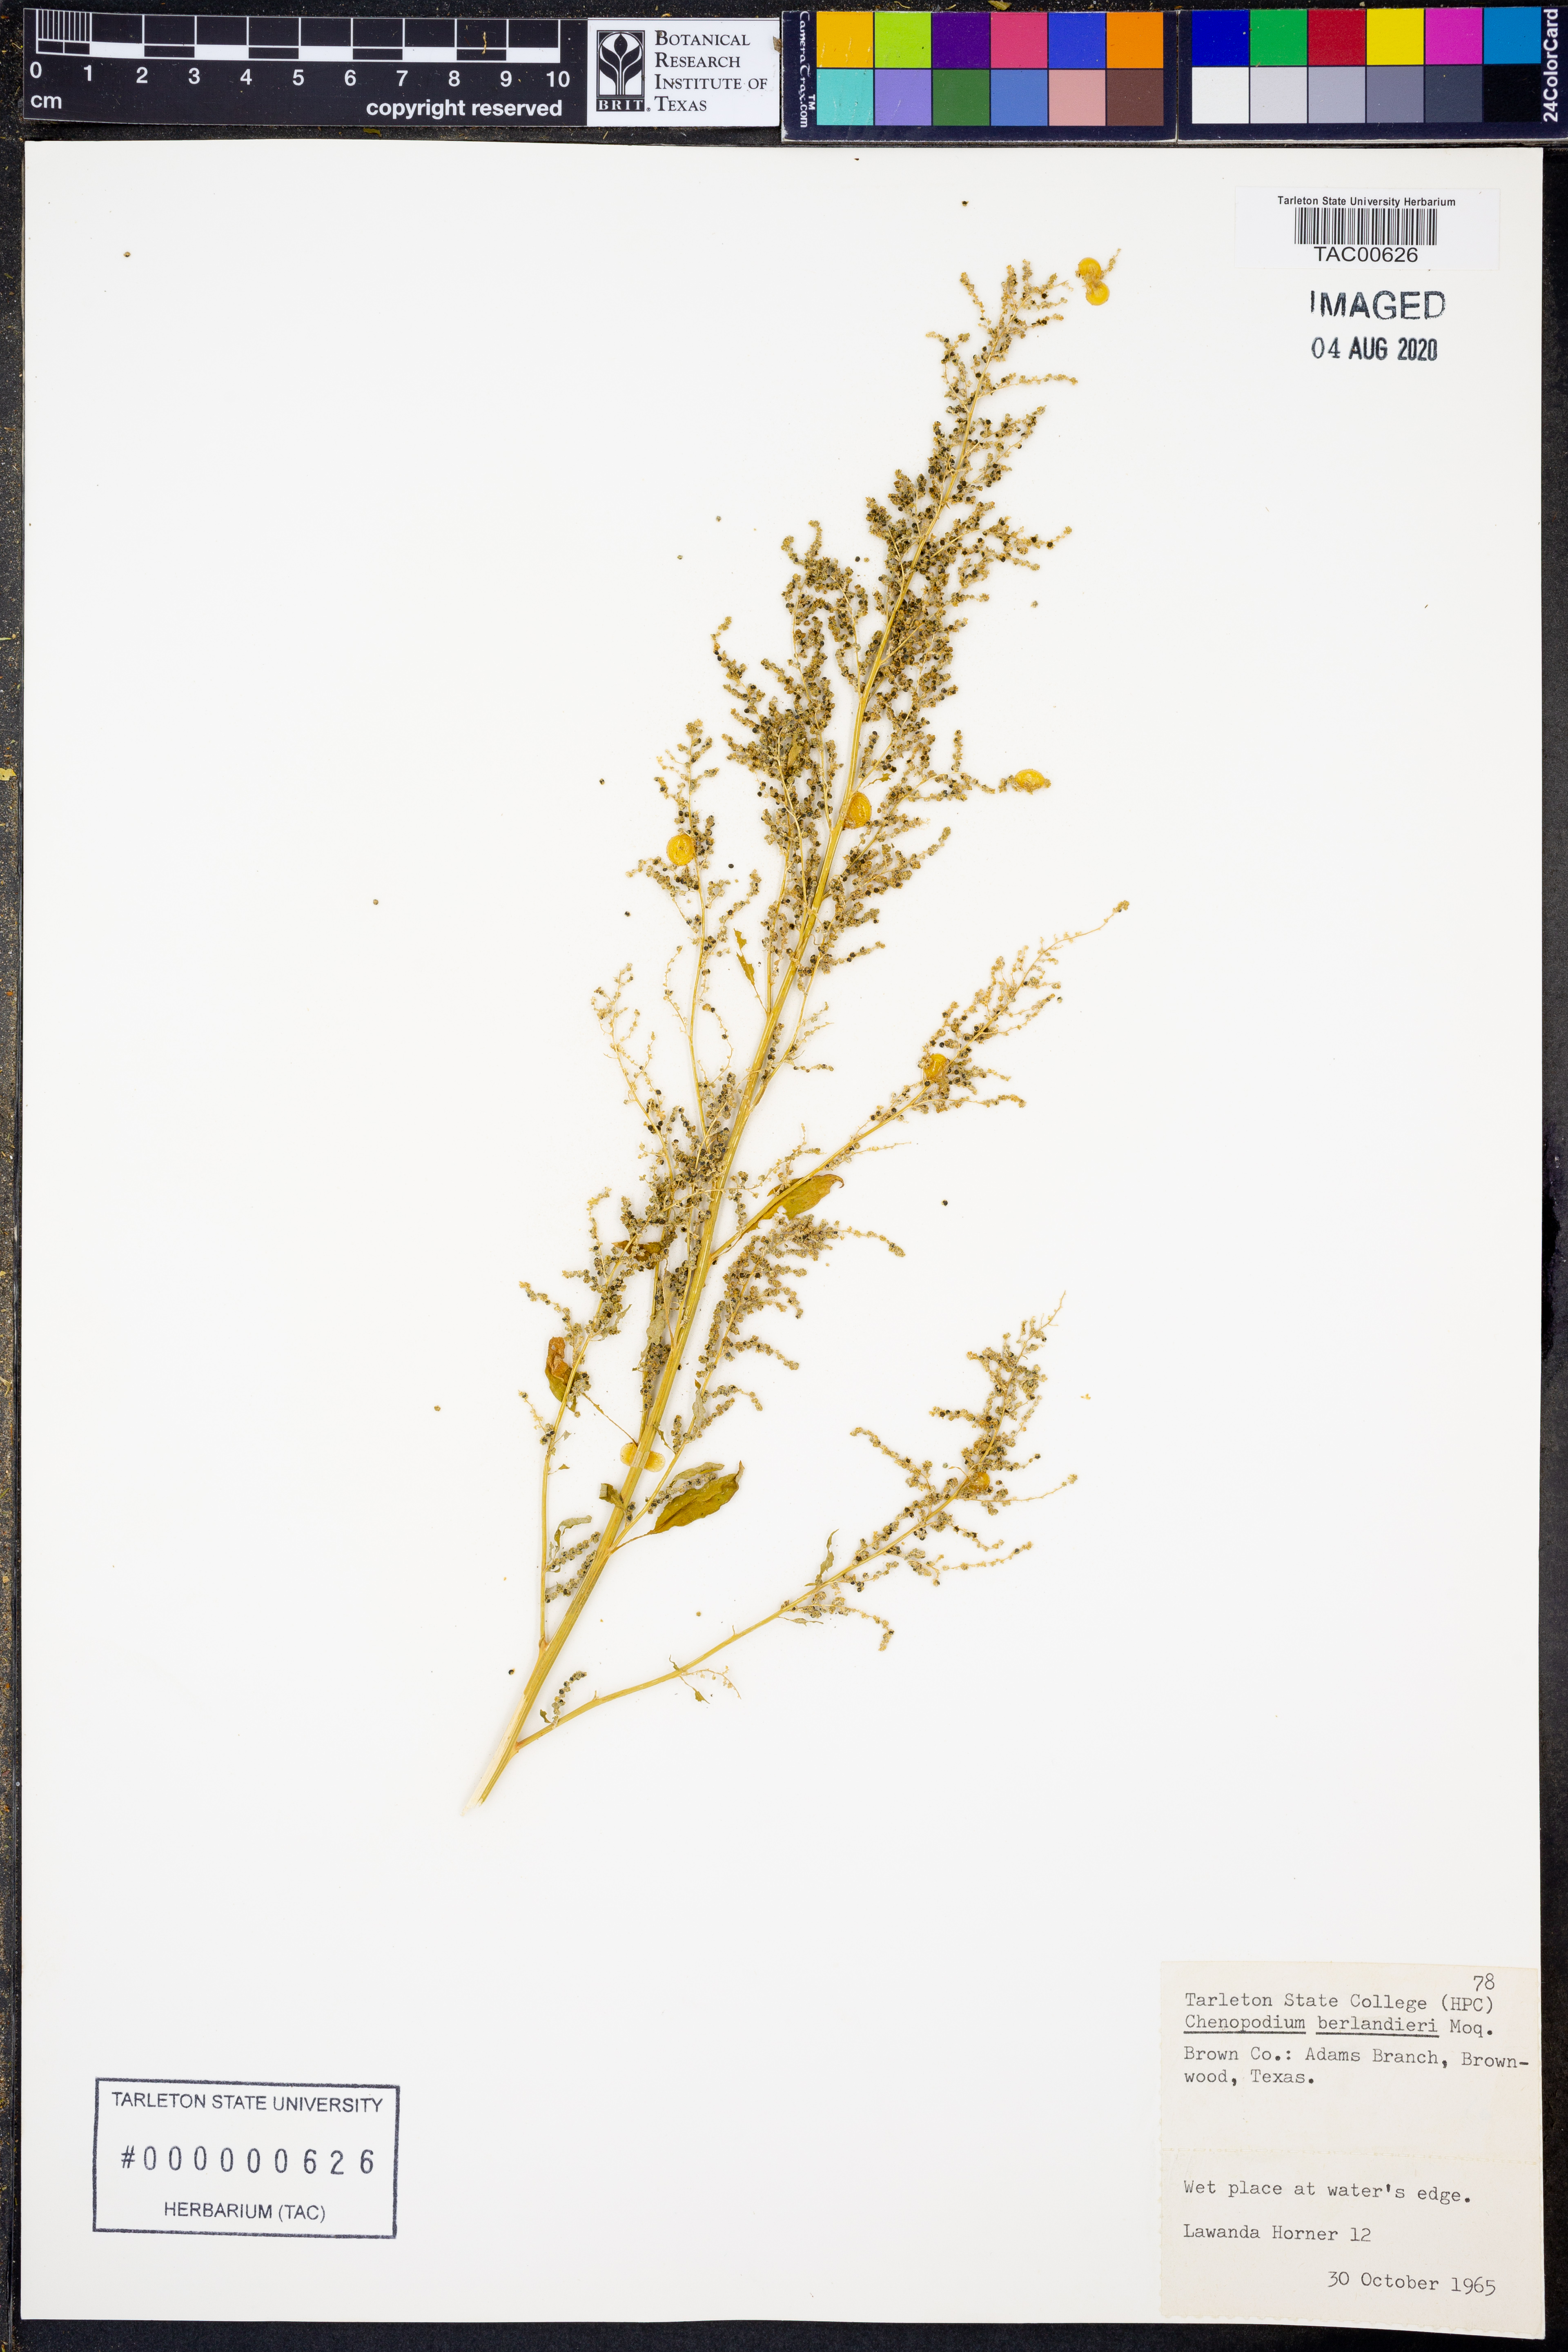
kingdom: Plantae
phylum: Tracheophyta
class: Magnoliopsida
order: Caryophyllales
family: Amaranthaceae
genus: Chenopodium
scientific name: Chenopodium berlandieri
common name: Pit-seed goosefoot
